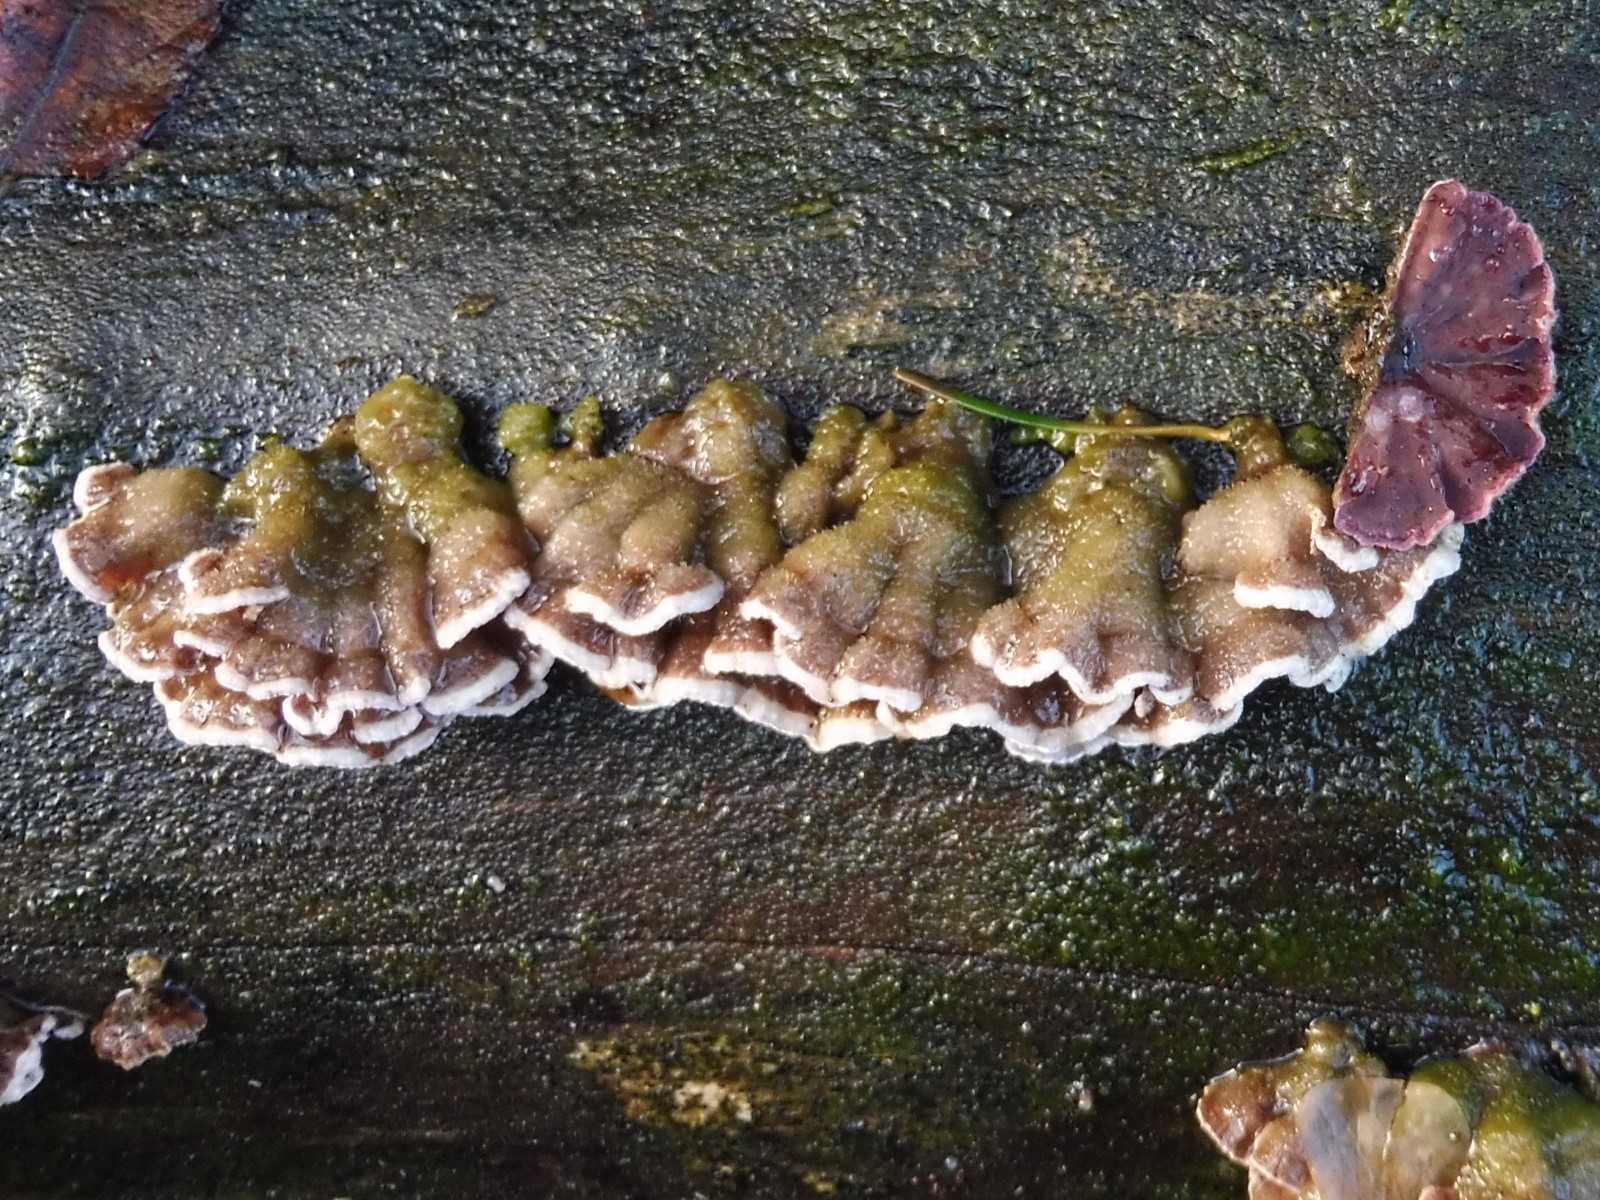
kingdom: Fungi
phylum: Basidiomycota
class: Agaricomycetes
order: Agaricales
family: Cyphellaceae
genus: Chondrostereum
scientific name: Chondrostereum purpureum
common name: purpurlædersvamp
